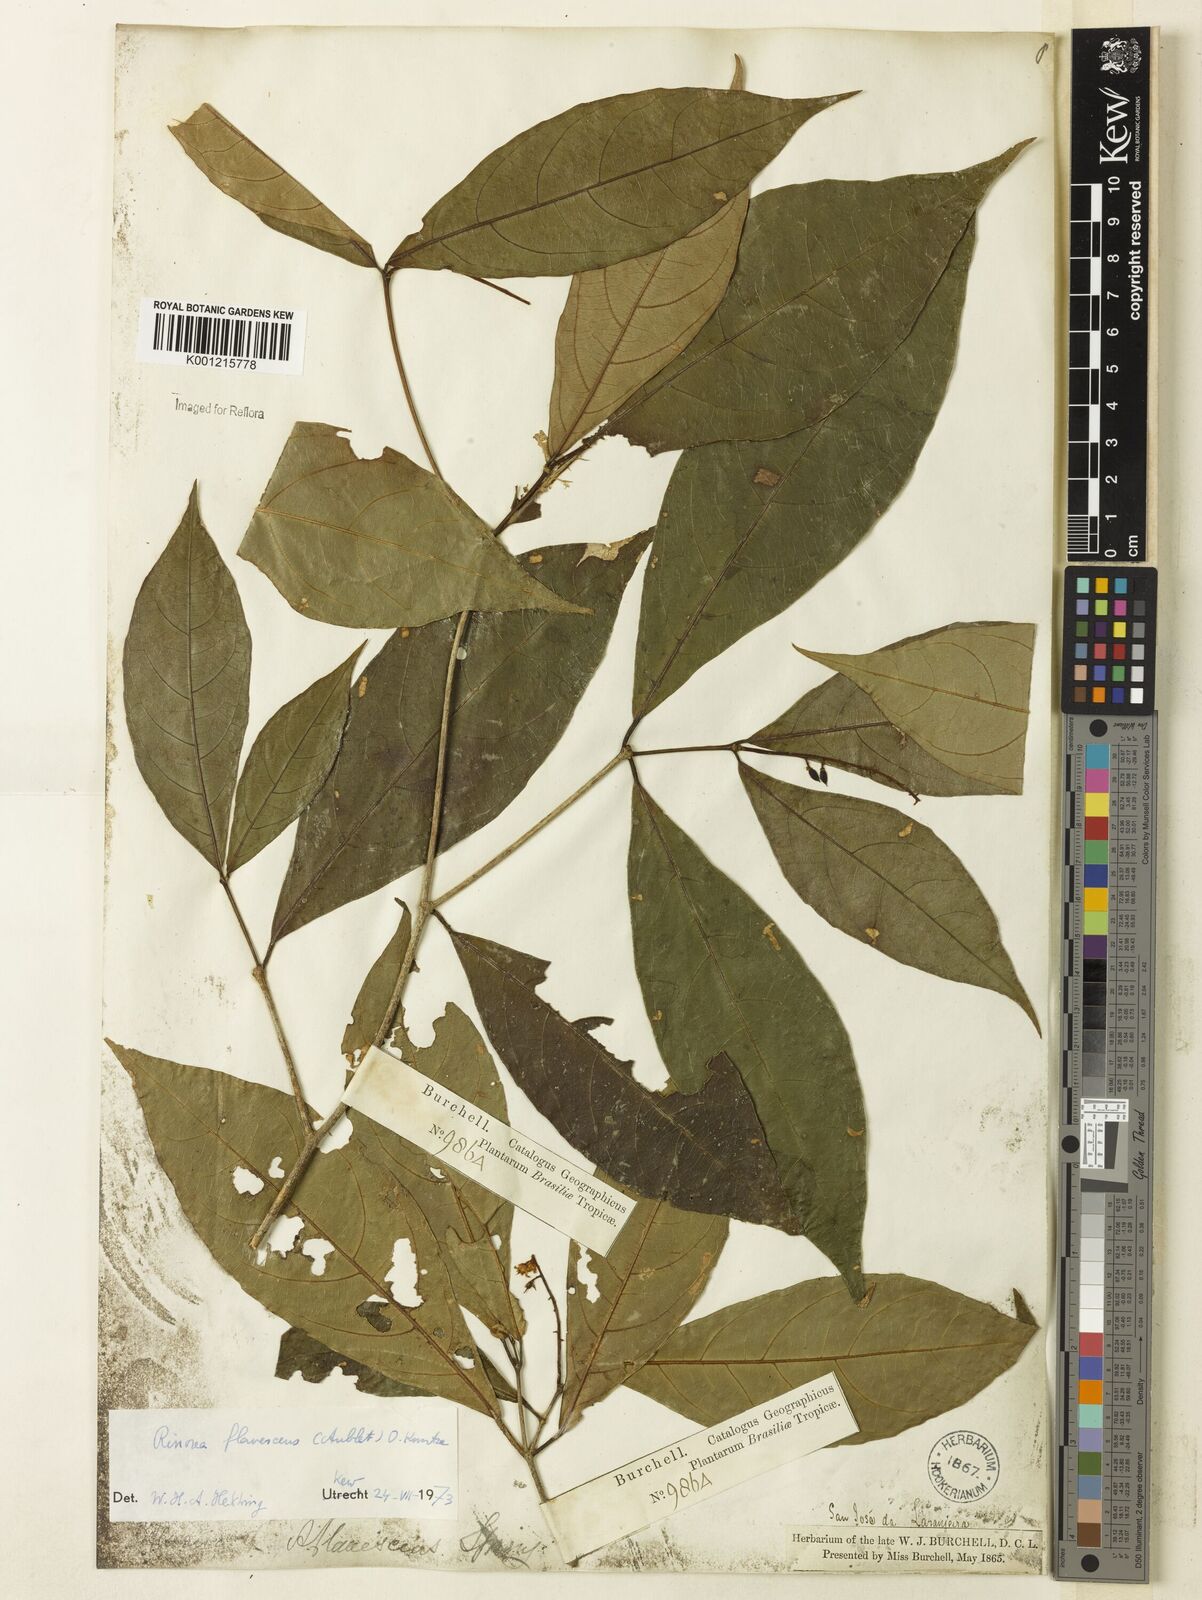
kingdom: Plantae
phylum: Tracheophyta
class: Magnoliopsida
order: Malpighiales
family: Violaceae
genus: Rinorea
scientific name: Rinorea flavescens
